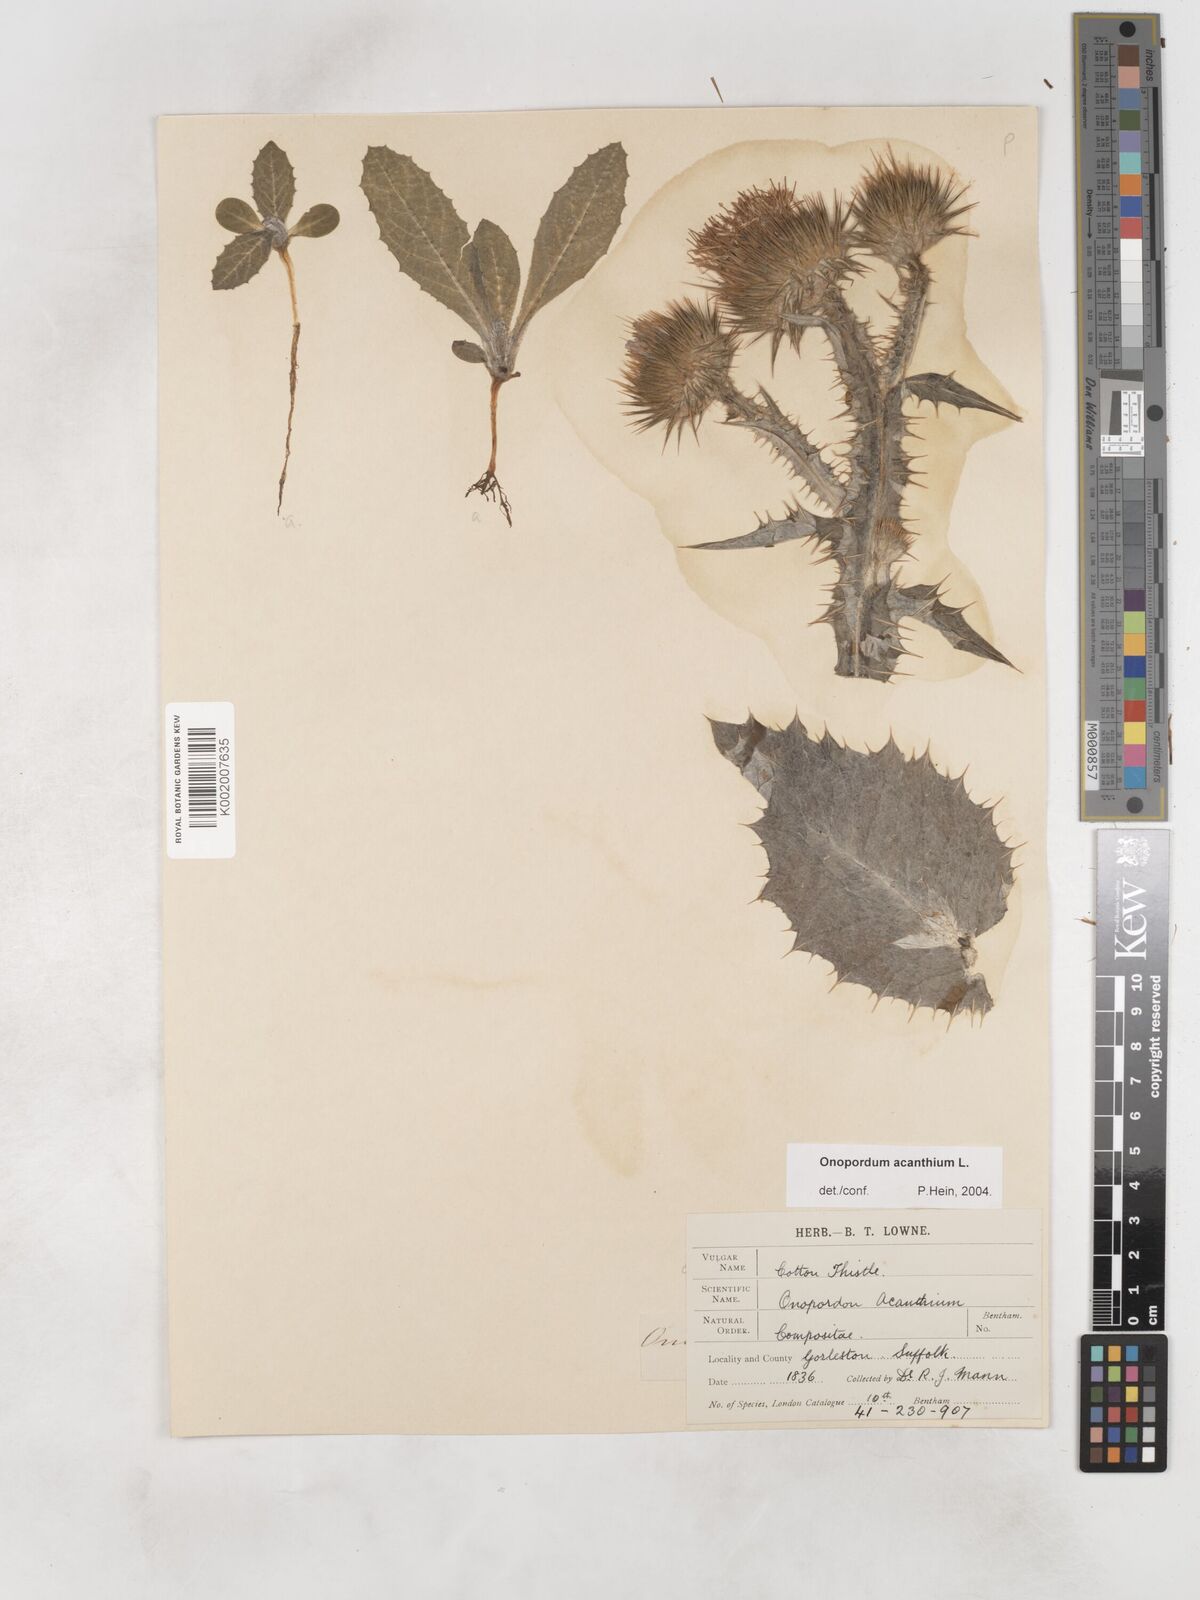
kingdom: Plantae
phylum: Tracheophyta
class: Magnoliopsida
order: Asterales
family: Asteraceae
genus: Onopordum
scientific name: Onopordum acanthium
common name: Scotch thistle
